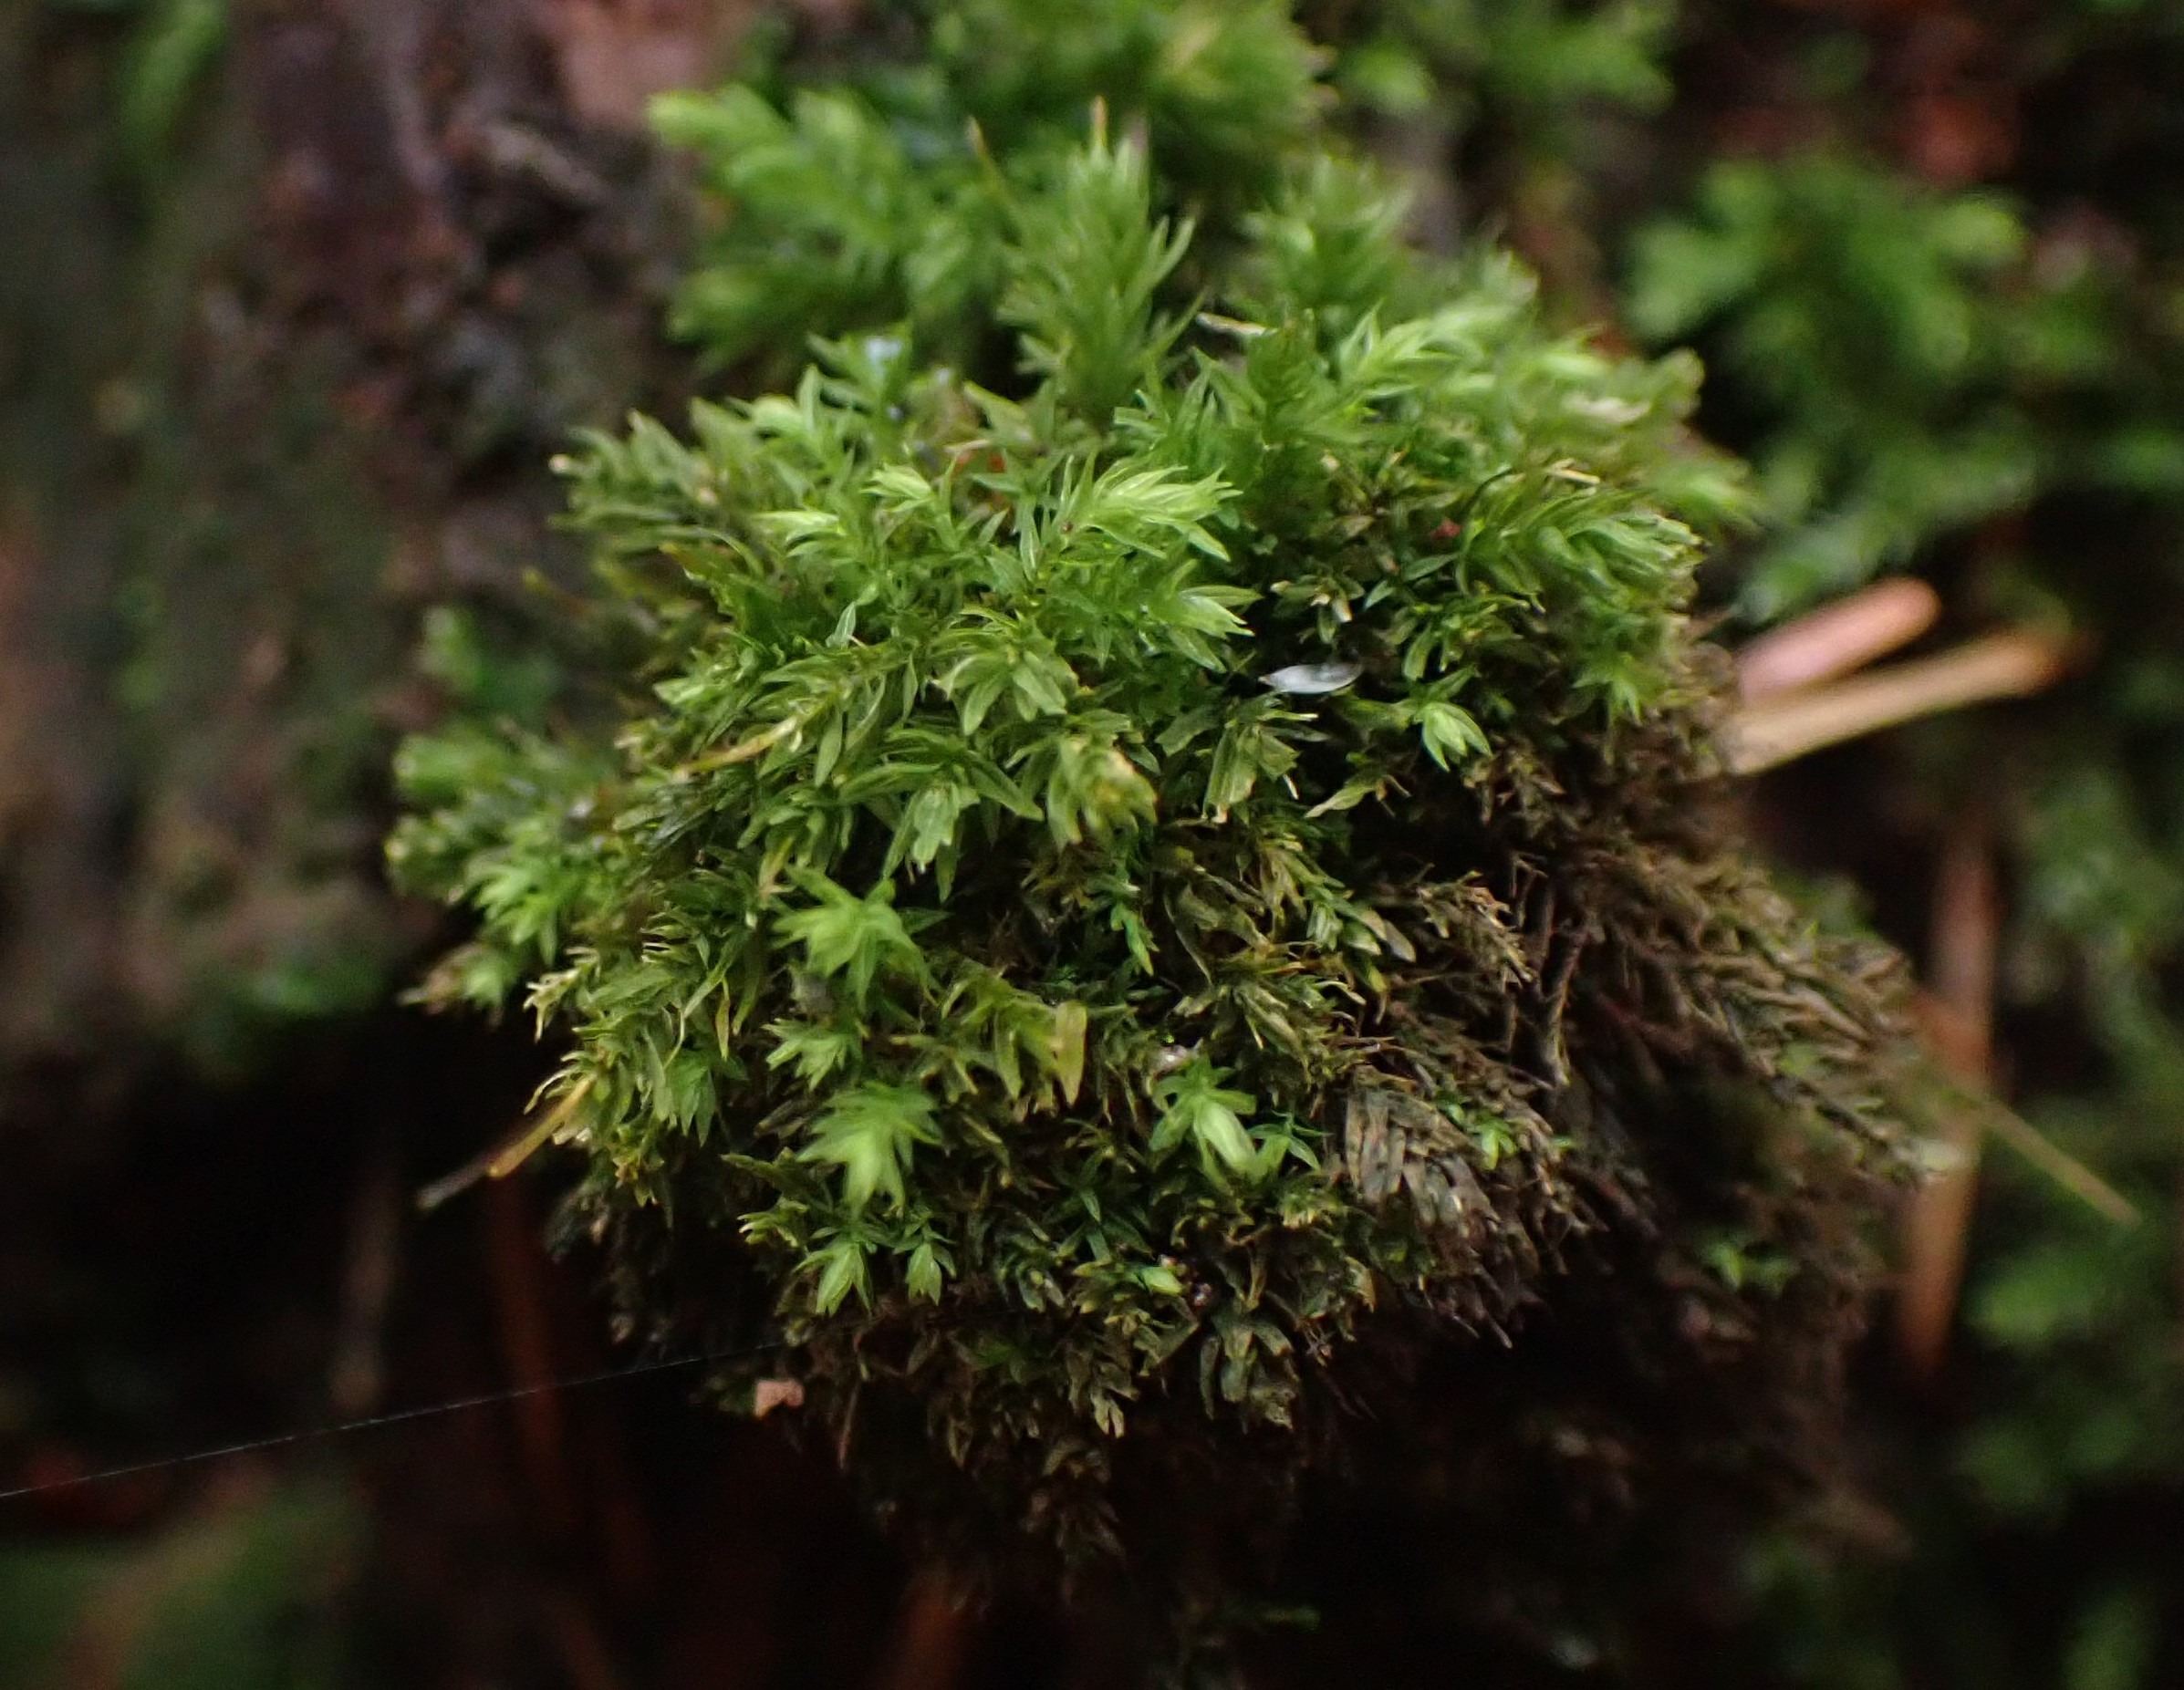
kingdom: Plantae
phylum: Bryophyta
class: Bryopsida
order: Aulacomniales
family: Aulacomniaceae
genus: Aulacomnium
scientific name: Aulacomnium androgynum
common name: Kugle-filtmos
